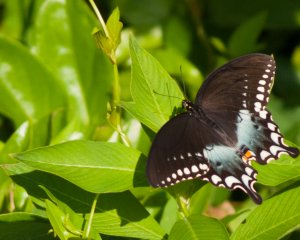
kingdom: Animalia
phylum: Arthropoda
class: Insecta
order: Lepidoptera
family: Papilionidae
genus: Pterourus
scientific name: Pterourus troilus
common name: Spicebush Swallowtail
